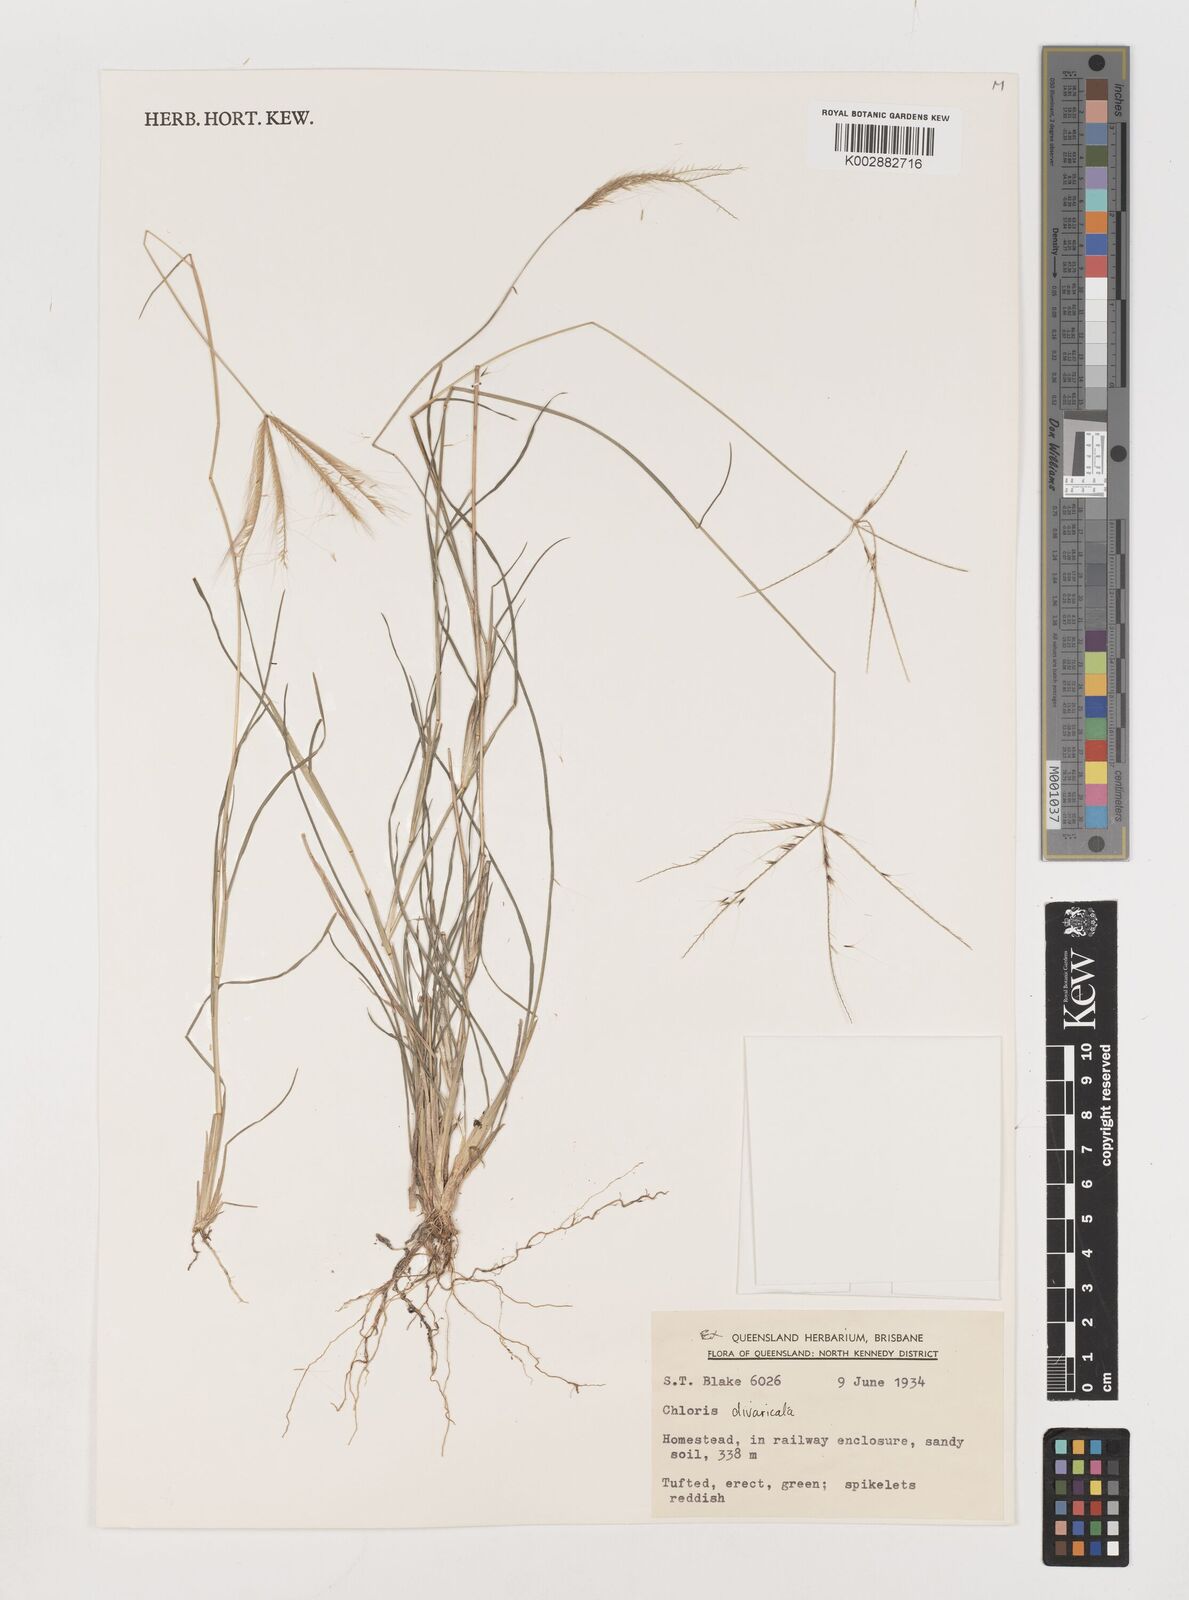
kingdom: Plantae
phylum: Tracheophyta
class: Liliopsida
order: Poales
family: Poaceae
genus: Chloris
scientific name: Chloris divaricata
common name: Spreading windmill grass
